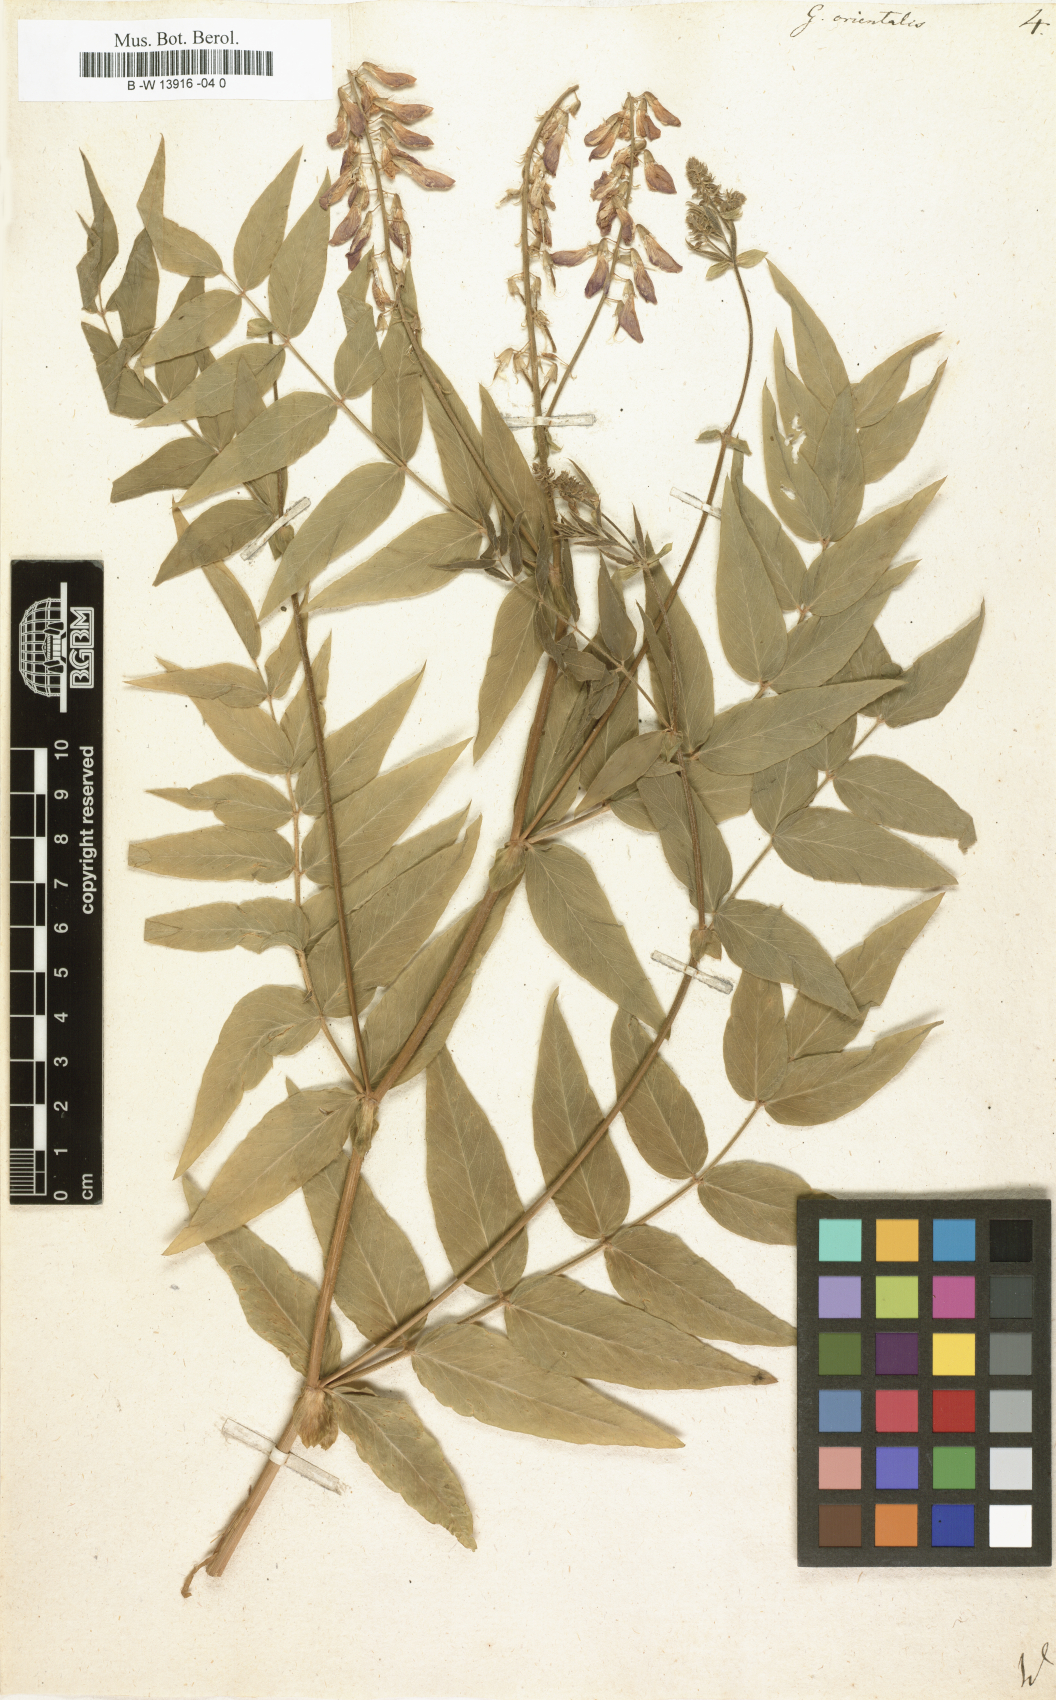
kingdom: Plantae
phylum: Tracheophyta
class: Magnoliopsida
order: Fabales
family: Fabaceae
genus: Galega
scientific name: Galega orientalis
